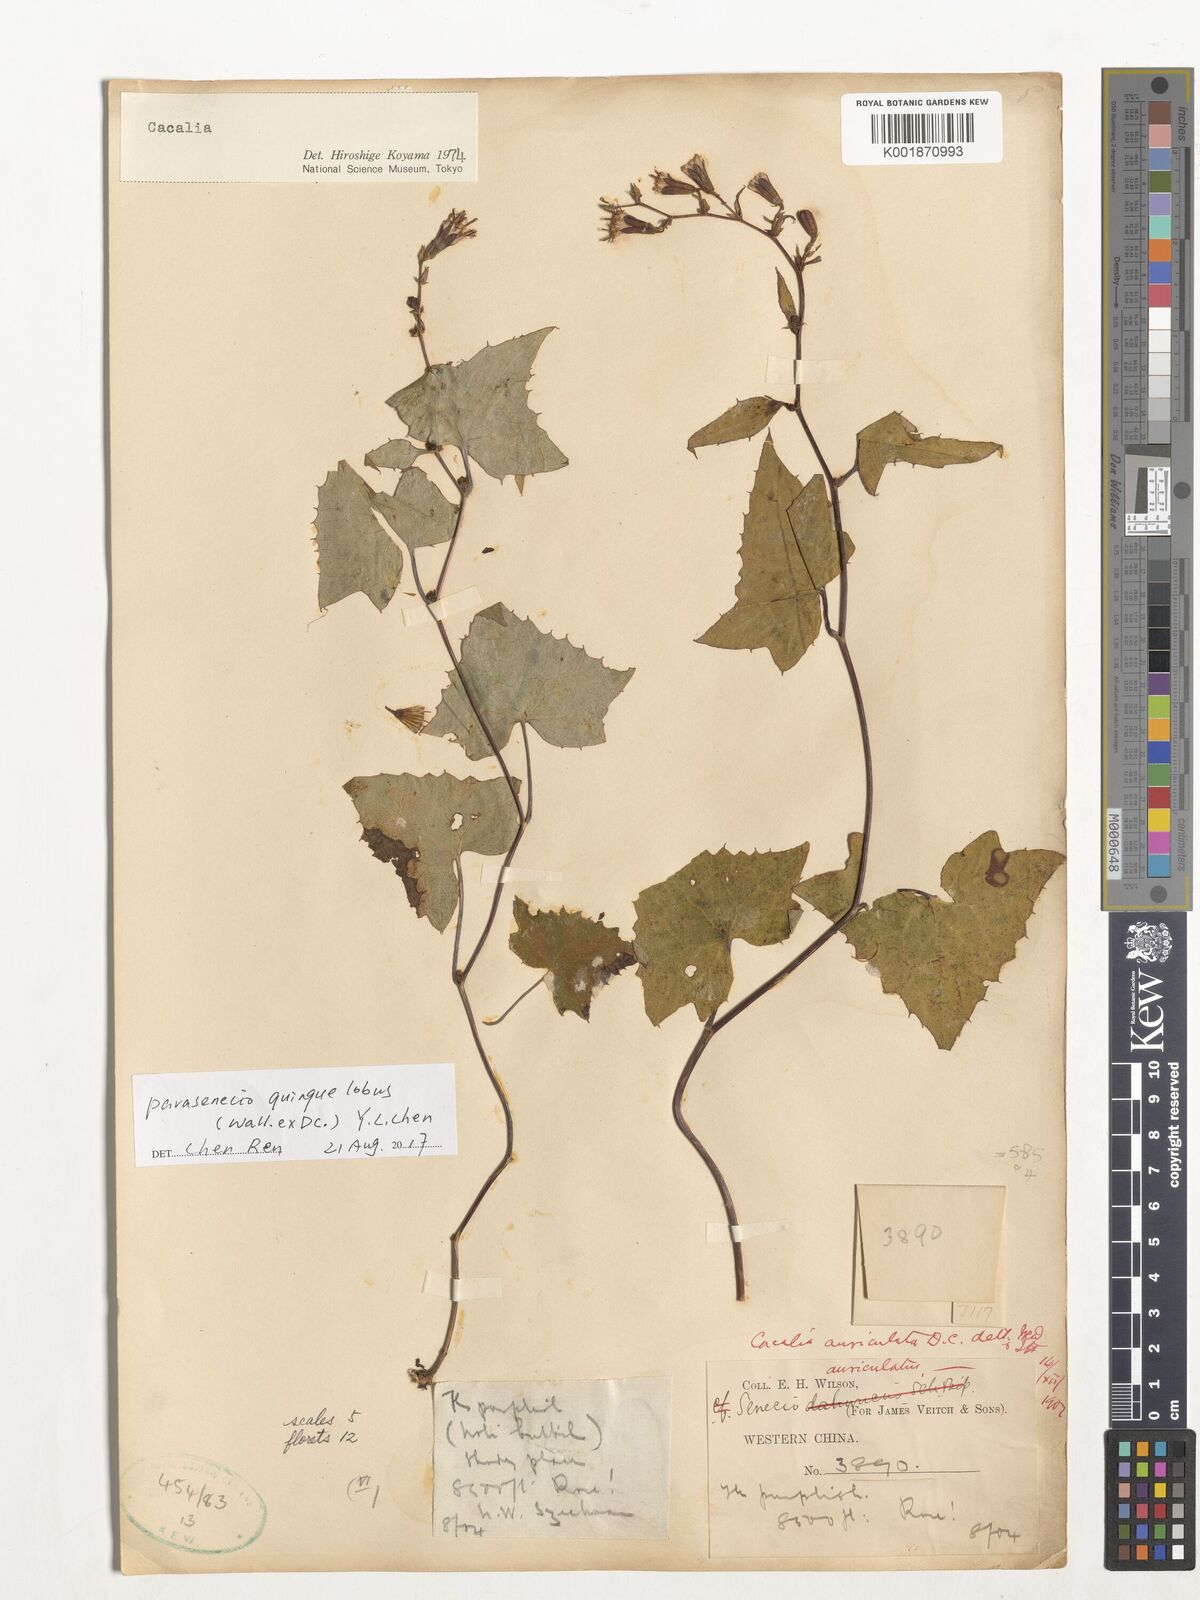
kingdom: Plantae
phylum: Tracheophyta
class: Magnoliopsida
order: Asterales
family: Asteraceae
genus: Parasenecio
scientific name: Parasenecio quinquelobus
